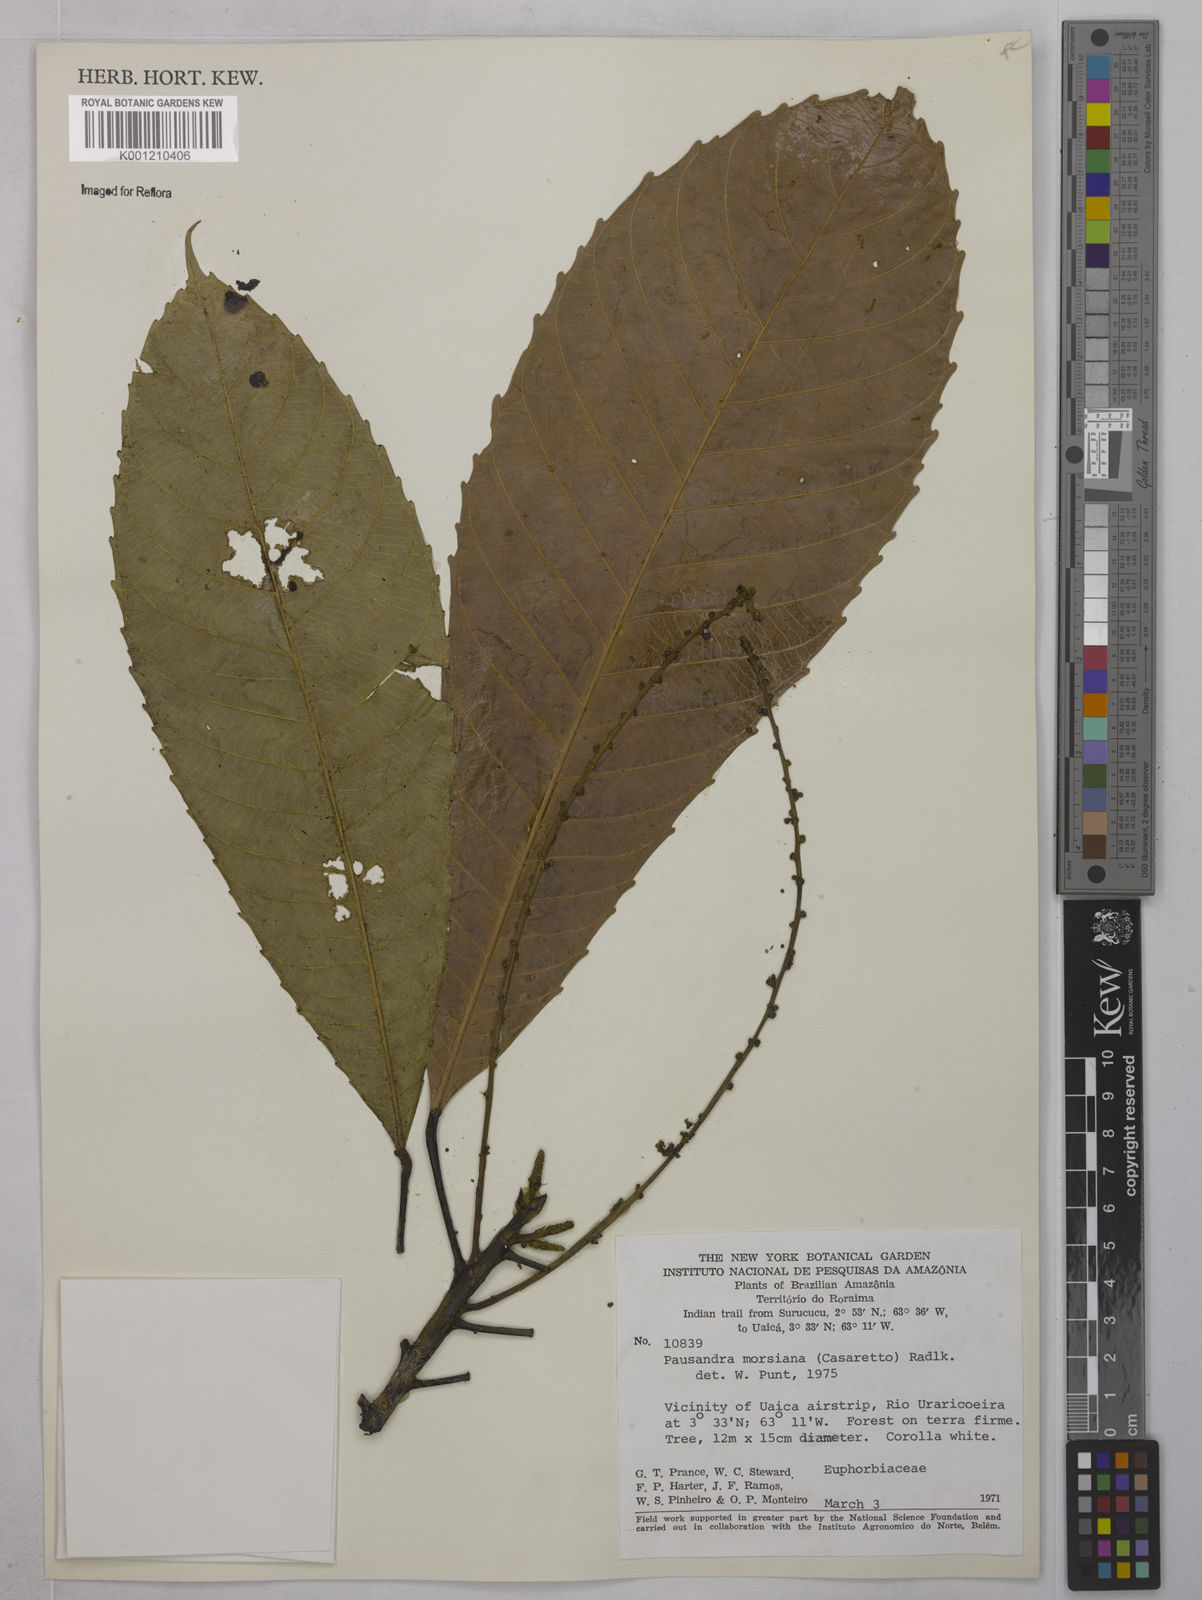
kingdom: Plantae
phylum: Tracheophyta
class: Magnoliopsida
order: Malpighiales
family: Euphorbiaceae
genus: Pausandra
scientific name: Pausandra morisiana
